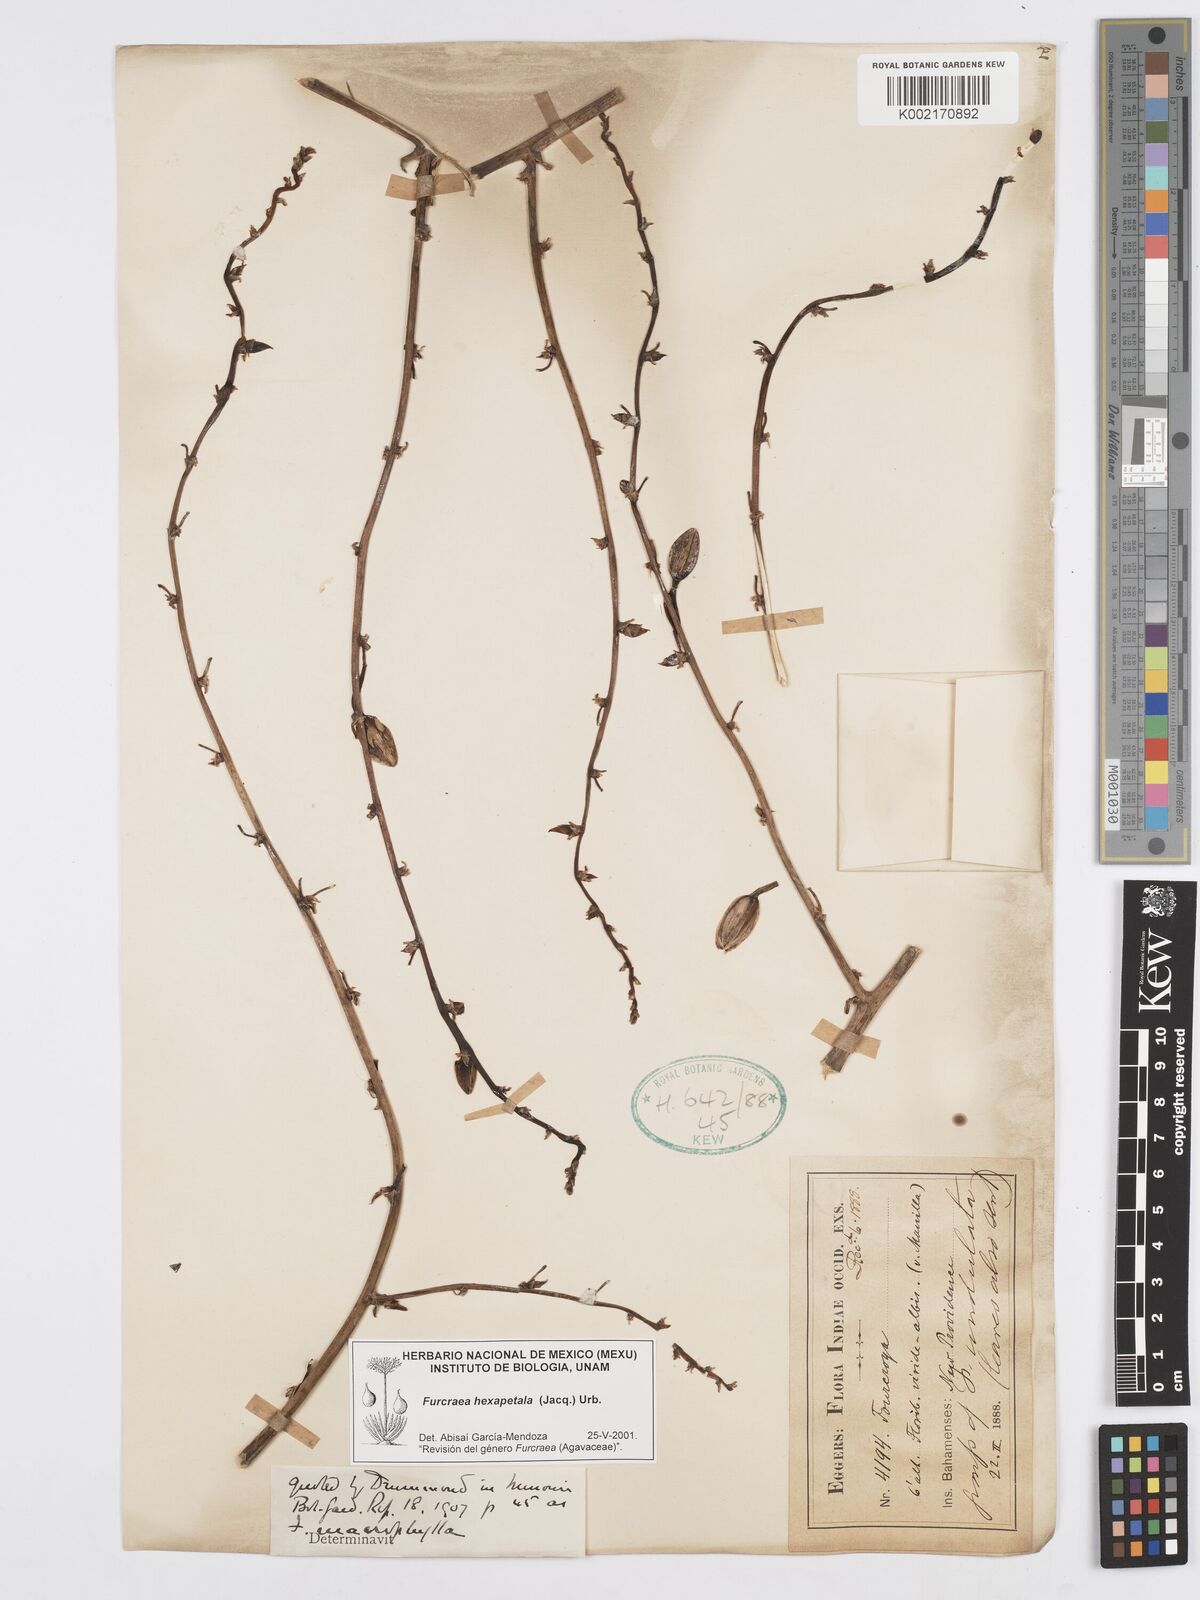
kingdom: Plantae
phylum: Tracheophyta
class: Liliopsida
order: Asparagales
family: Asparagaceae
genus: Furcraea
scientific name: Furcraea hexapetala
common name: Cuban-hemp
